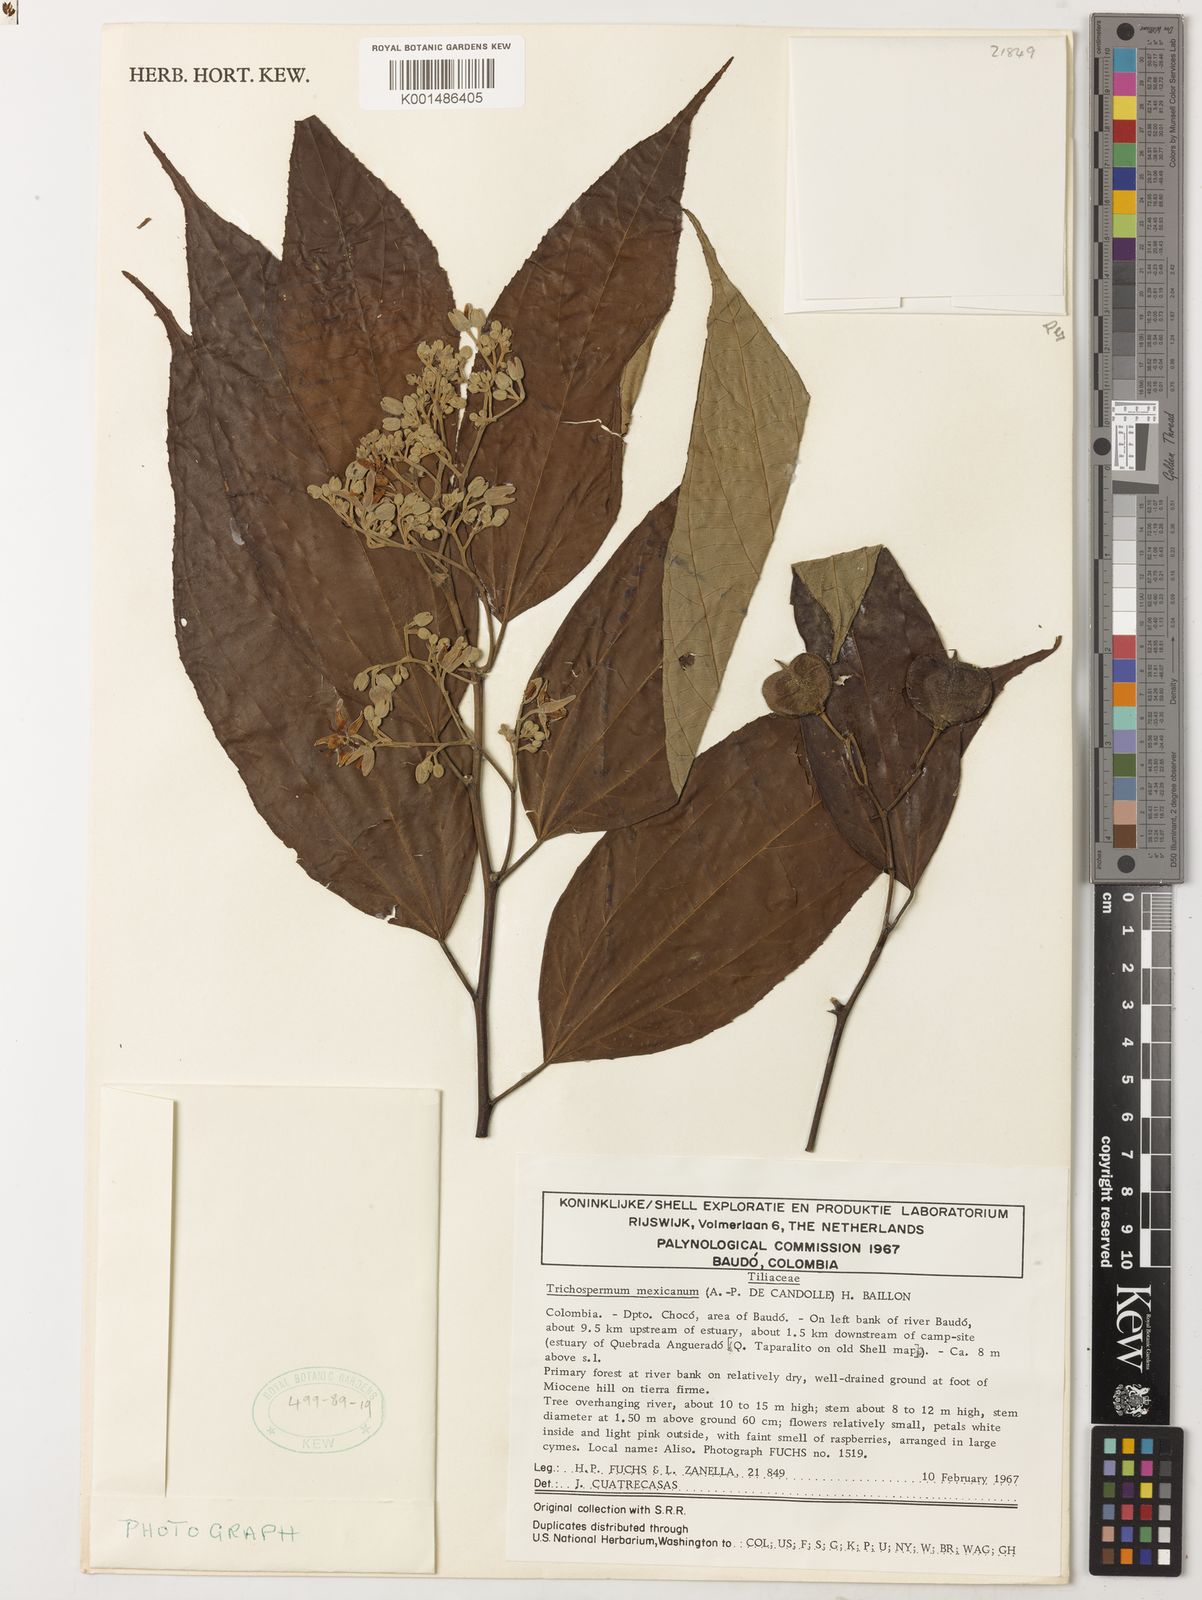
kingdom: Plantae
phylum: Tracheophyta
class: Magnoliopsida
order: Malvales
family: Malvaceae
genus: Trichospermum
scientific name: Trichospermum mexicanum
